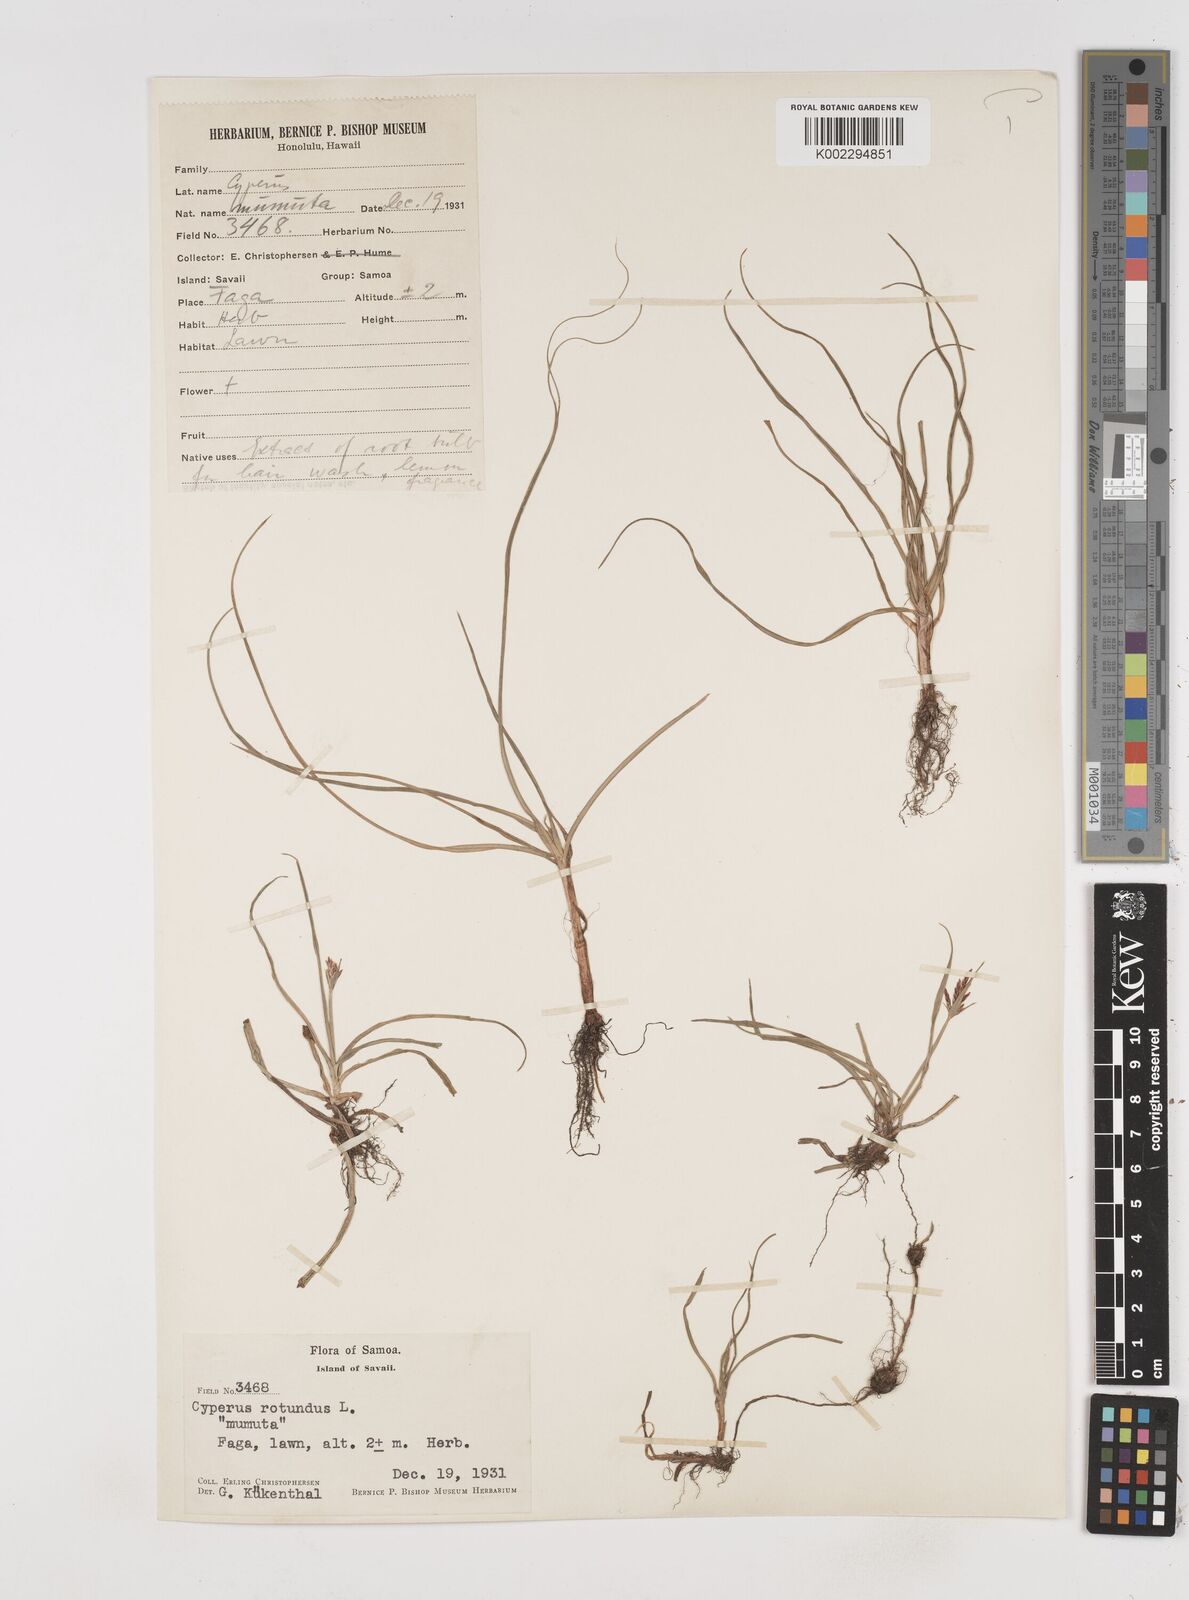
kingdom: Plantae
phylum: Tracheophyta
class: Liliopsida
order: Poales
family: Cyperaceae
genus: Cyperus
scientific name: Cyperus rotundus
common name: Nutgrass
